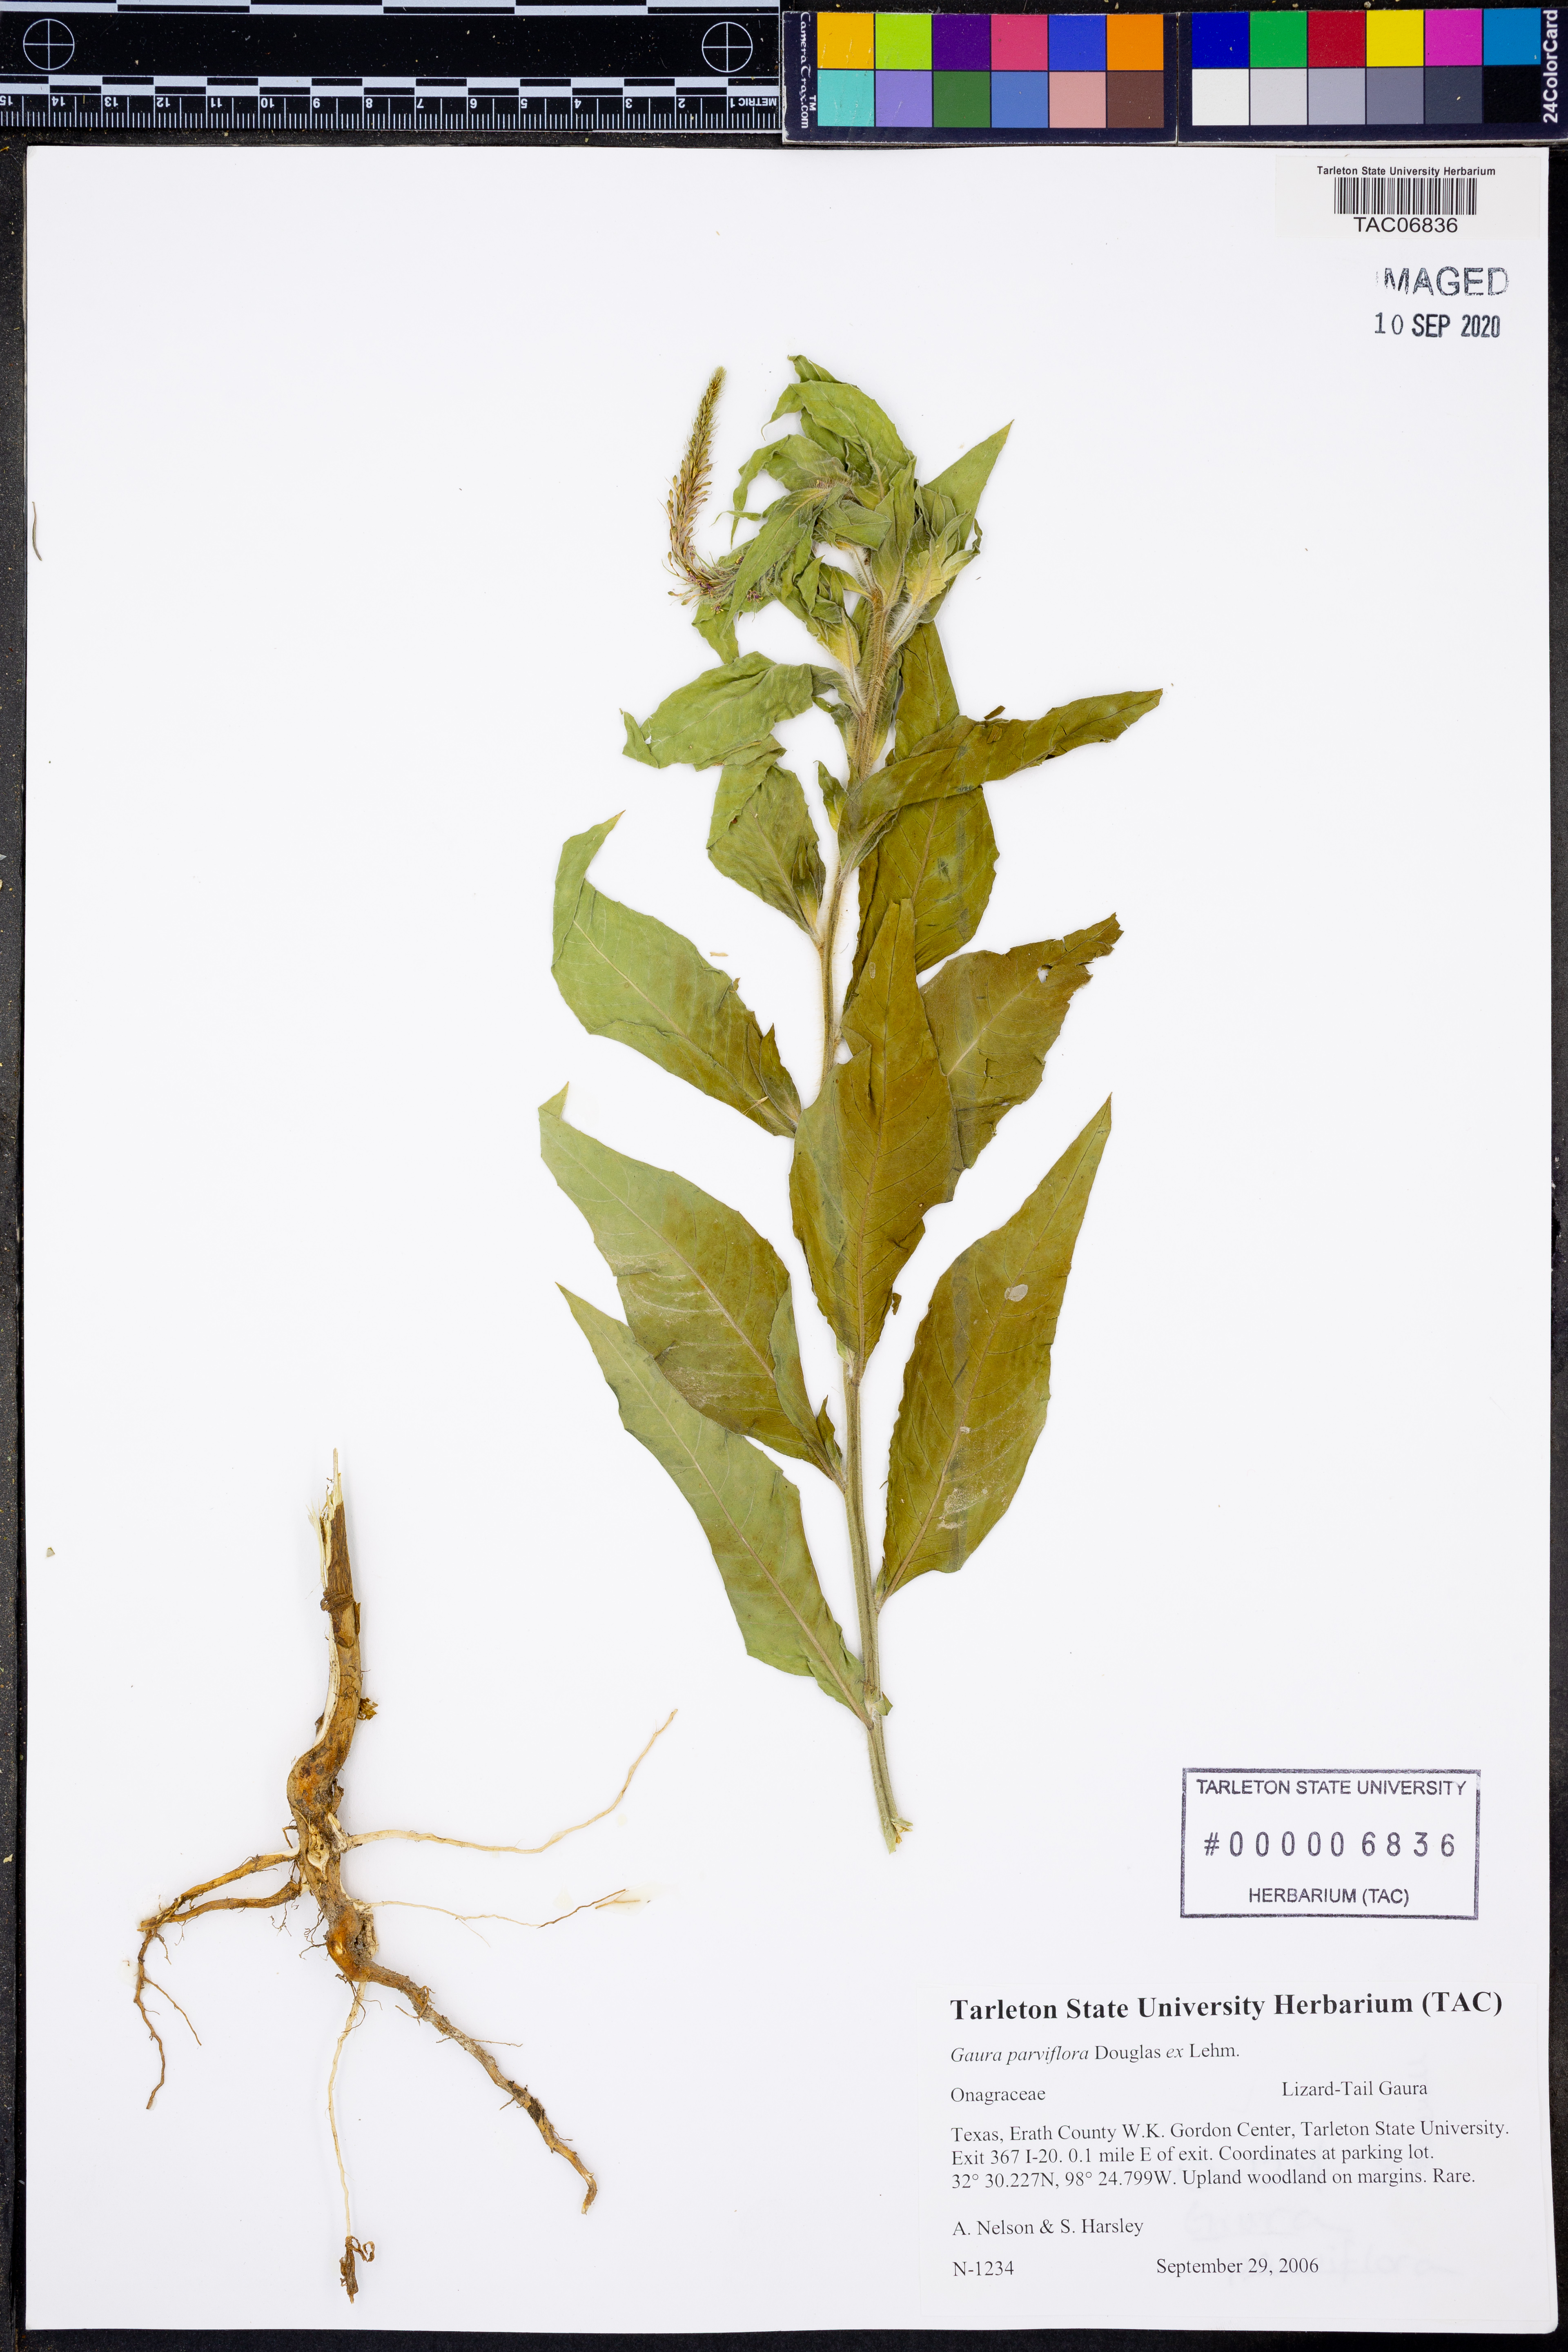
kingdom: Plantae
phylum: Tracheophyta
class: Magnoliopsida
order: Myrtales
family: Onagraceae
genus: Oenothera
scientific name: Oenothera curtiflora
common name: Velvetweed
